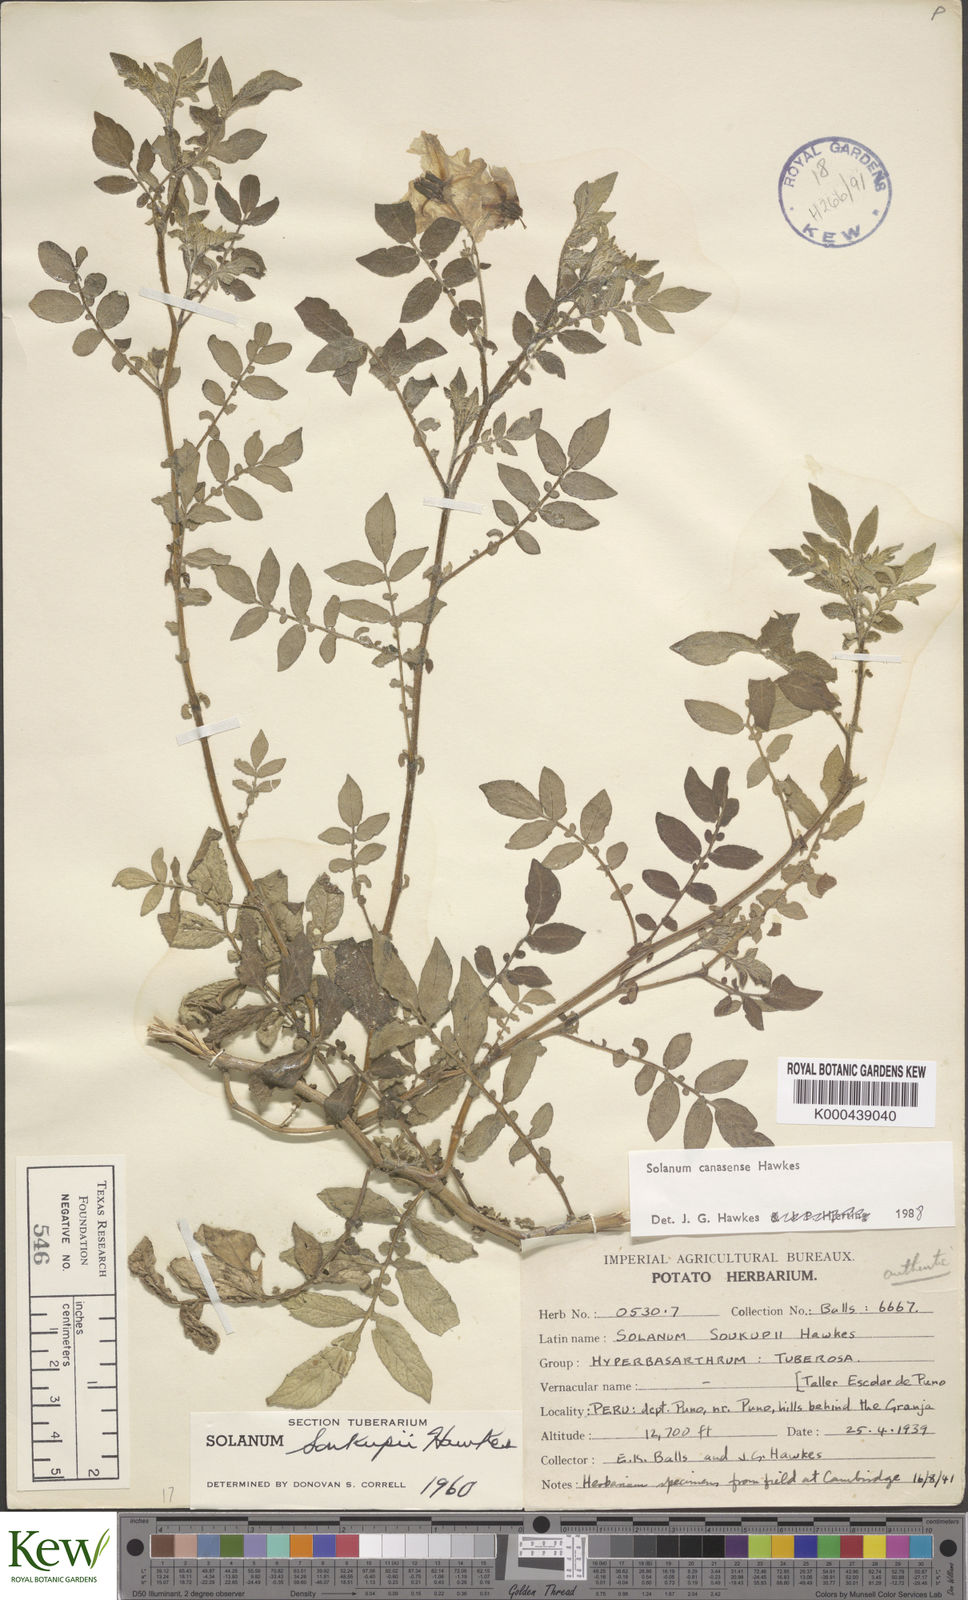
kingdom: Plantae
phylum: Tracheophyta
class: Magnoliopsida
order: Solanales
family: Solanaceae
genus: Solanum
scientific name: Solanum candolleanum
